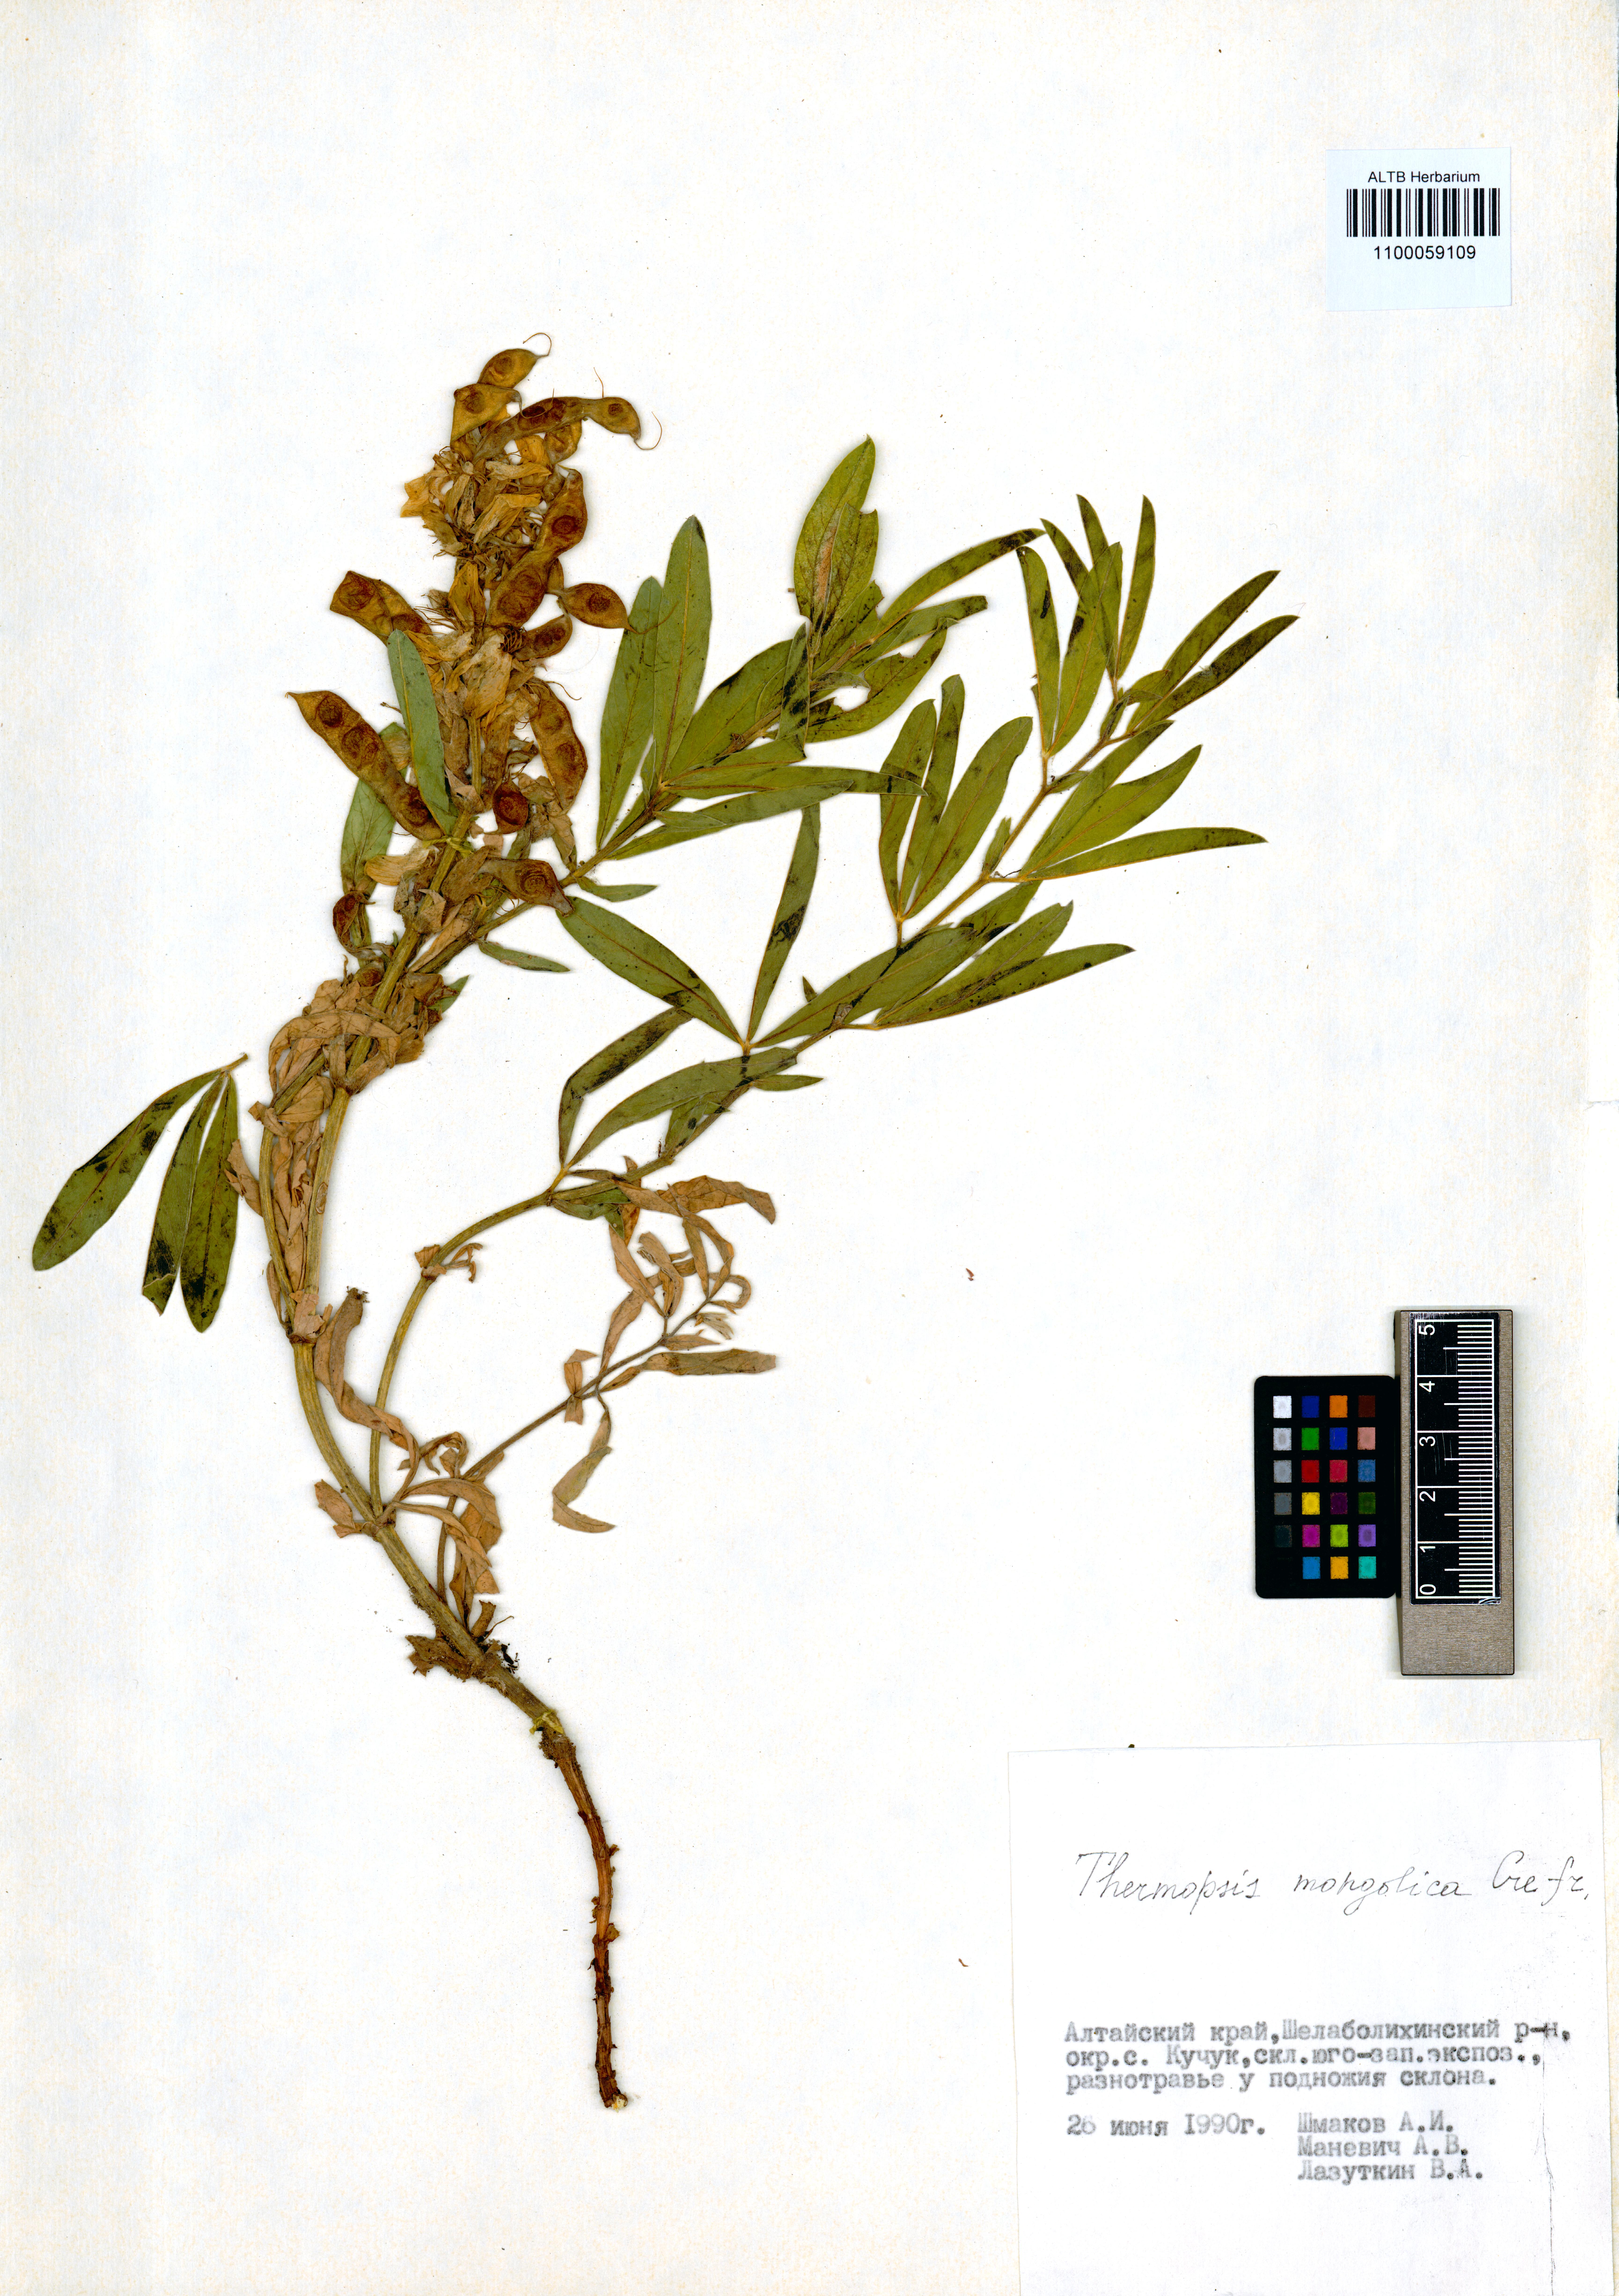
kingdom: Plantae
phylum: Tracheophyta
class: Magnoliopsida
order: Fabales
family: Fabaceae
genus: Thermopsis
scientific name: Thermopsis mongolica
